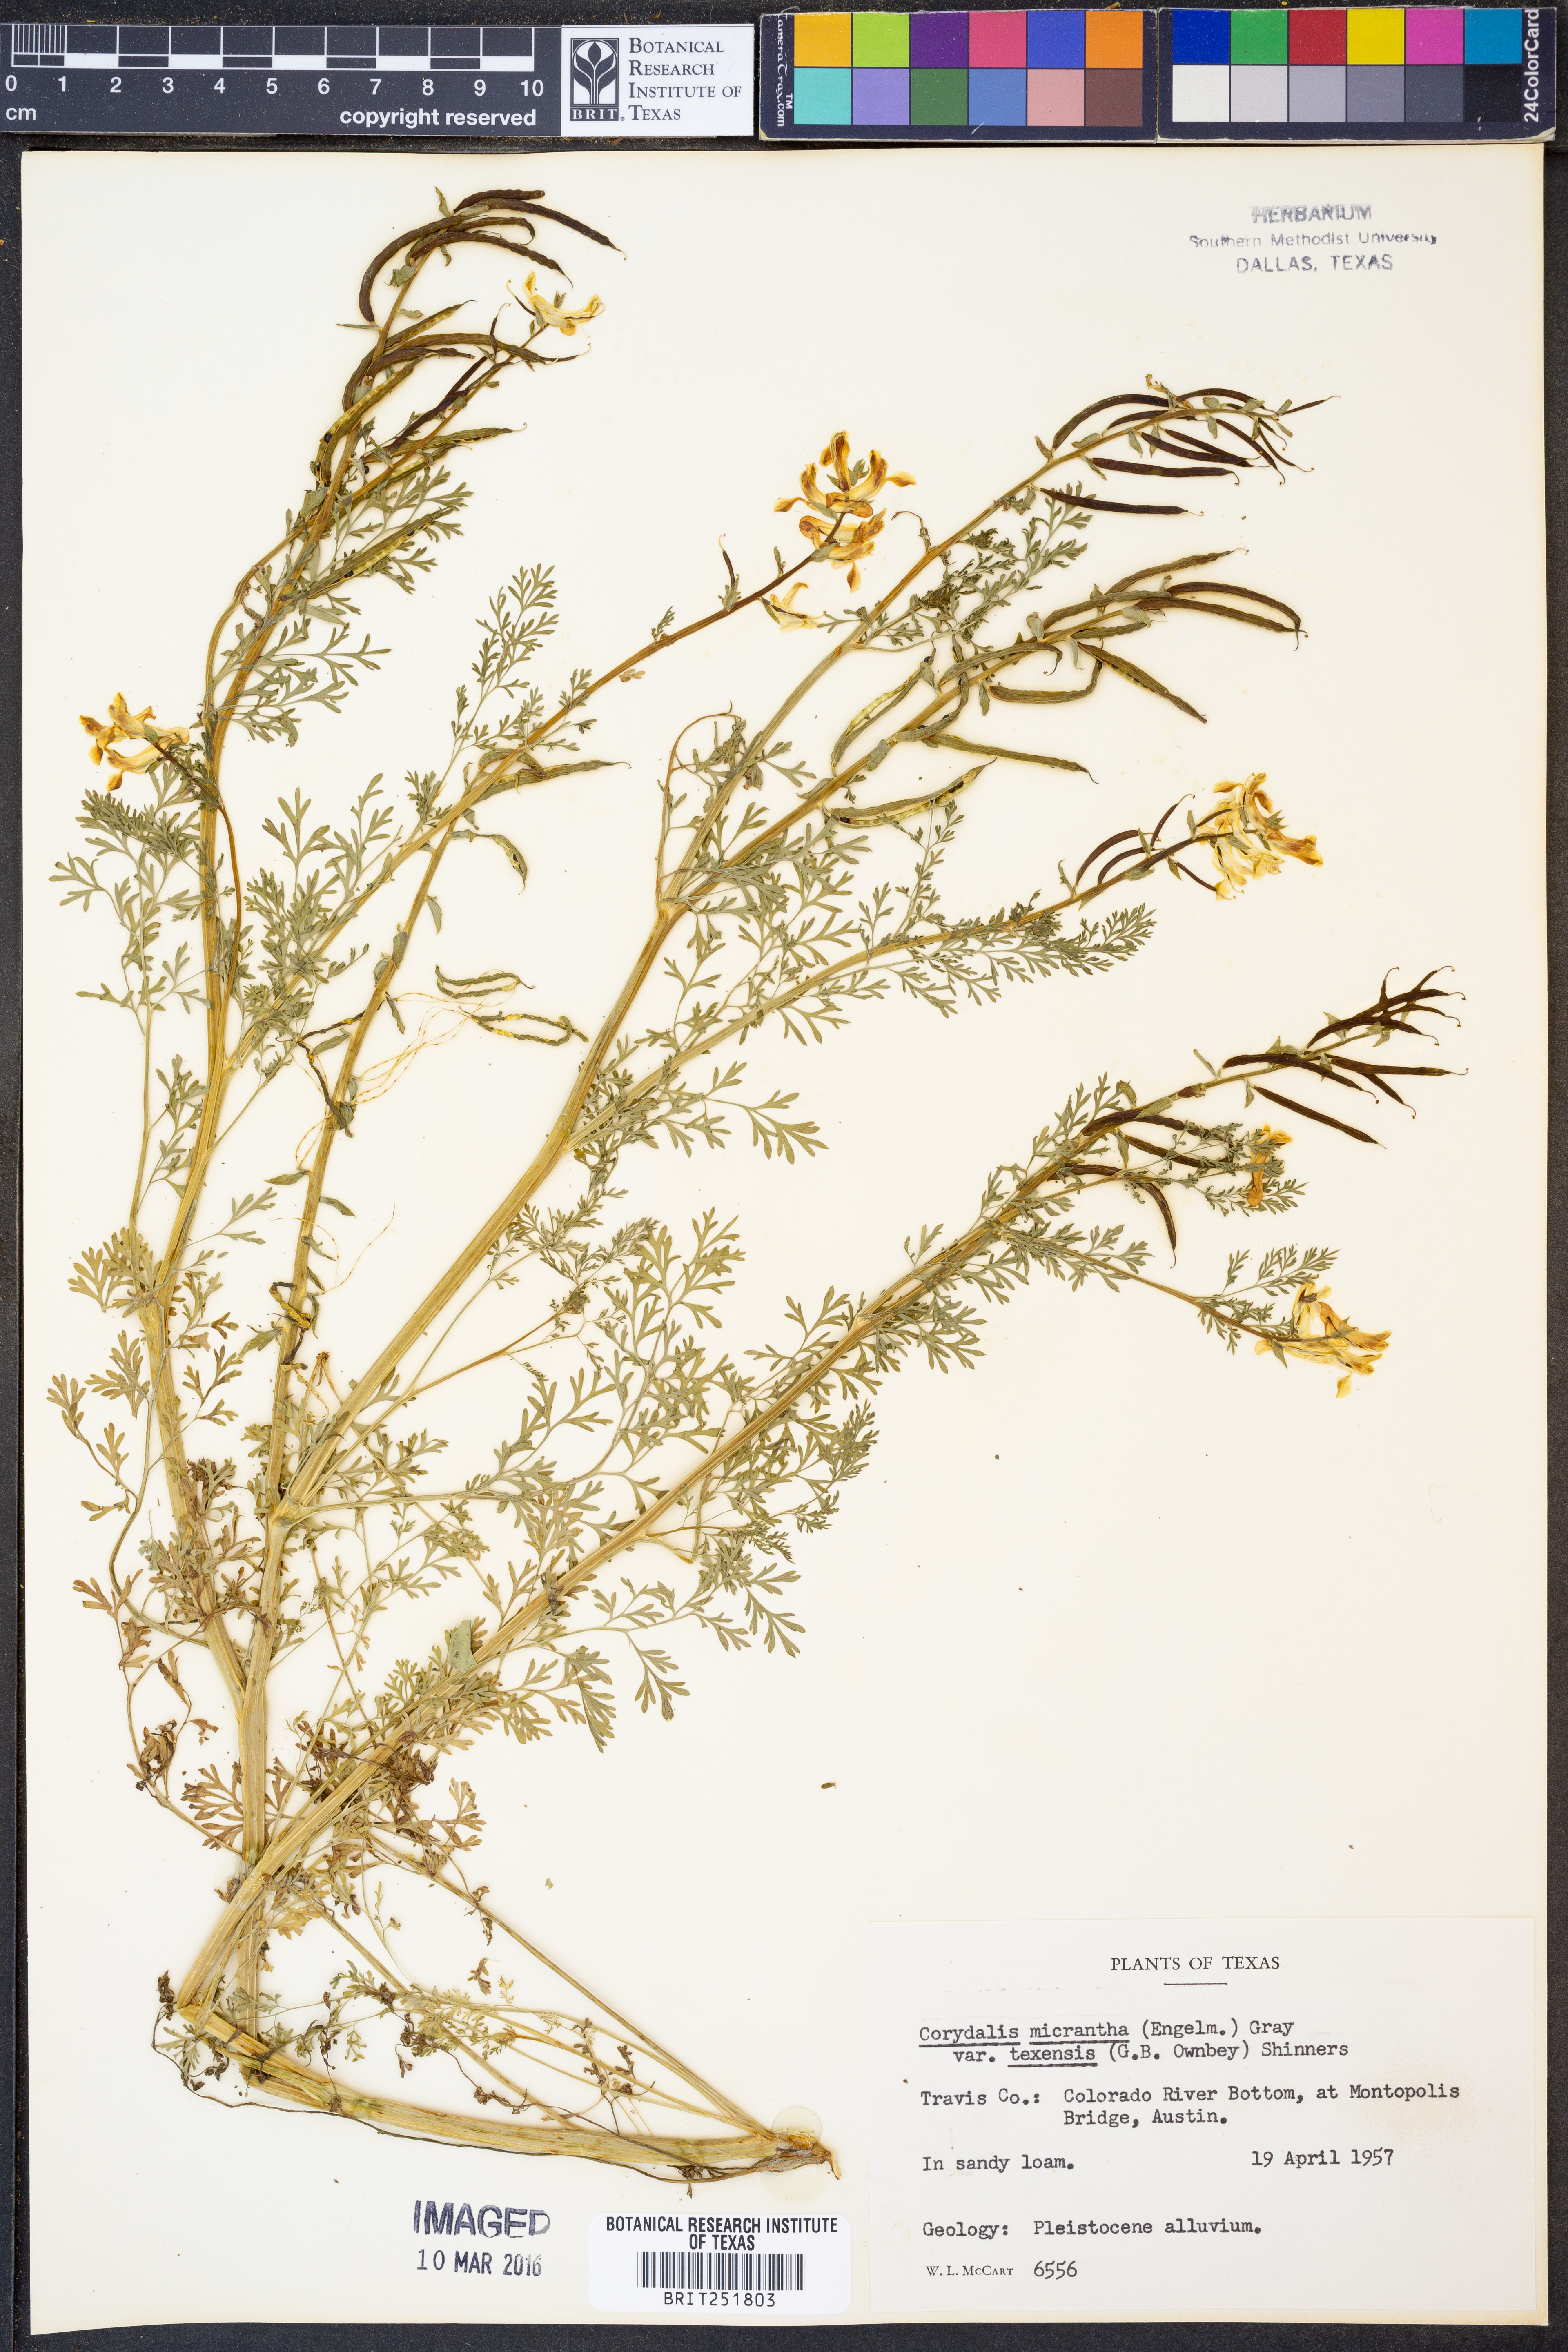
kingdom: Plantae
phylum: Tracheophyta
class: Magnoliopsida
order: Ranunculales
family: Papaveraceae
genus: Corydalis
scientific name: Corydalis micrantha
